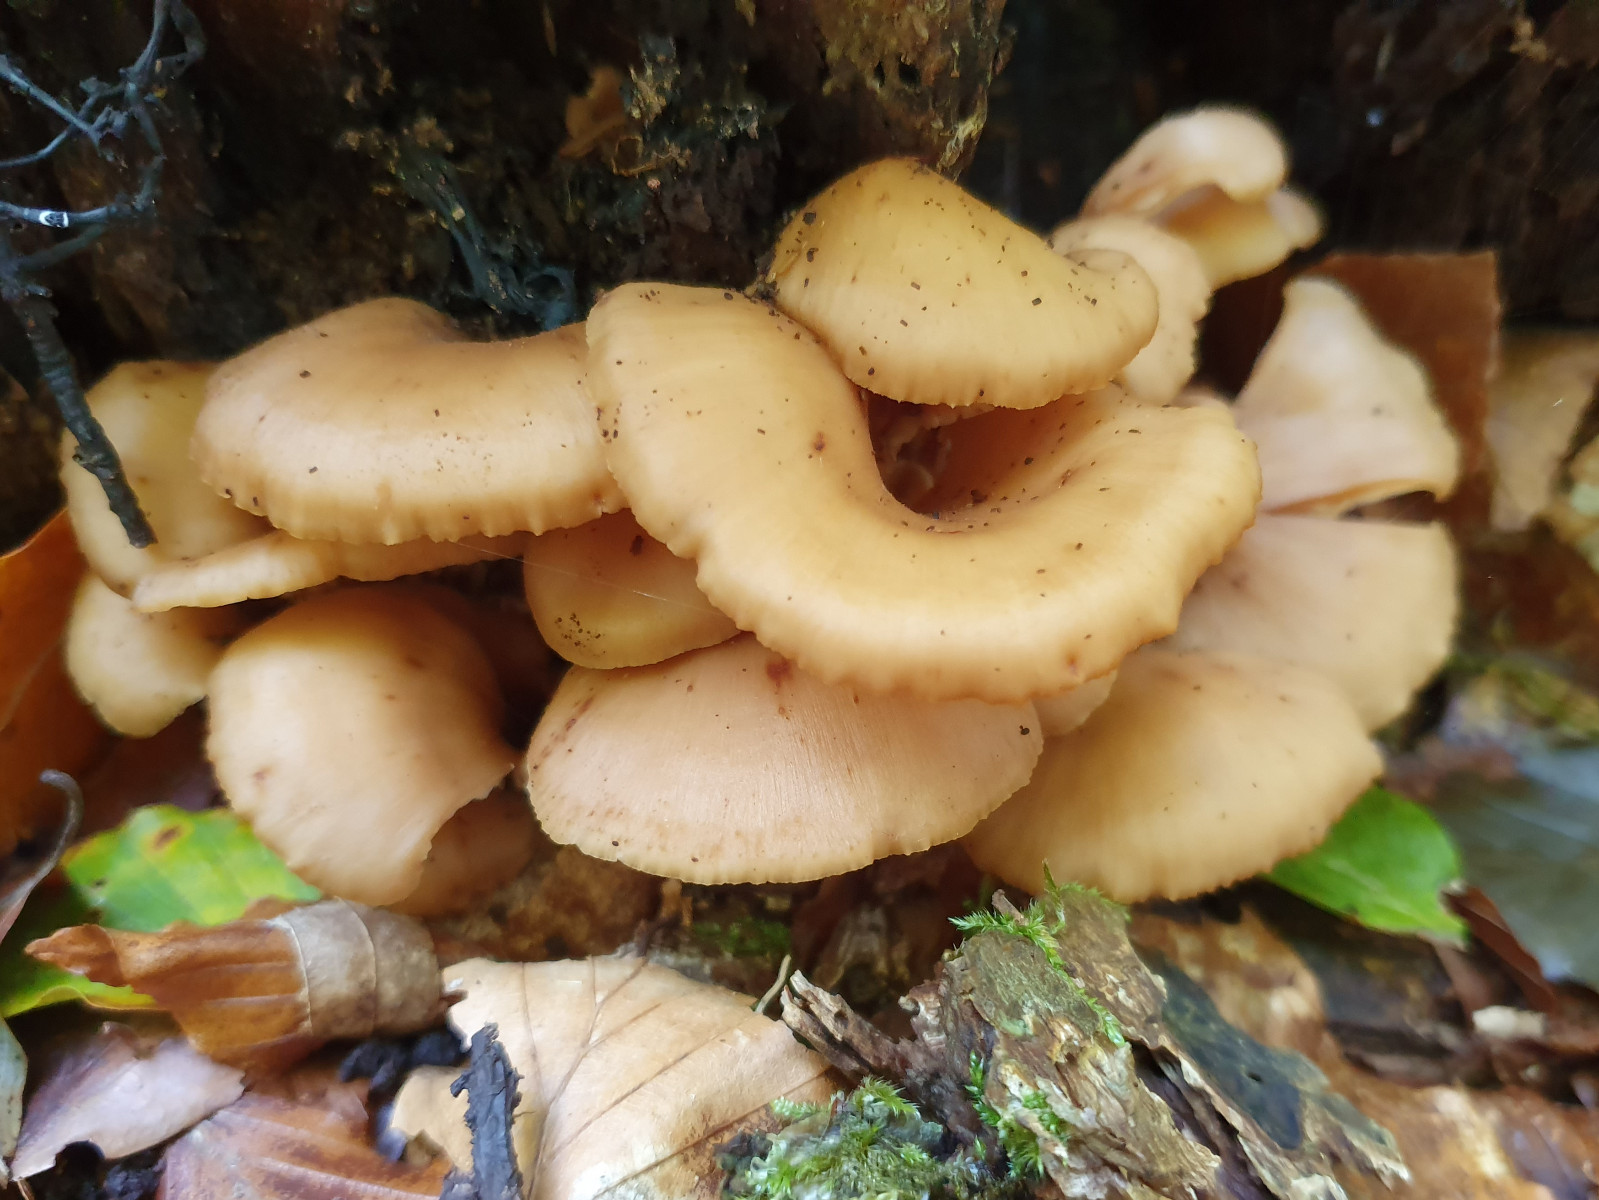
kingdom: Fungi
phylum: Basidiomycota
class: Agaricomycetes
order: Russulales
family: Auriscalpiaceae
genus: Lentinellus
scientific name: Lentinellus cochleatus
